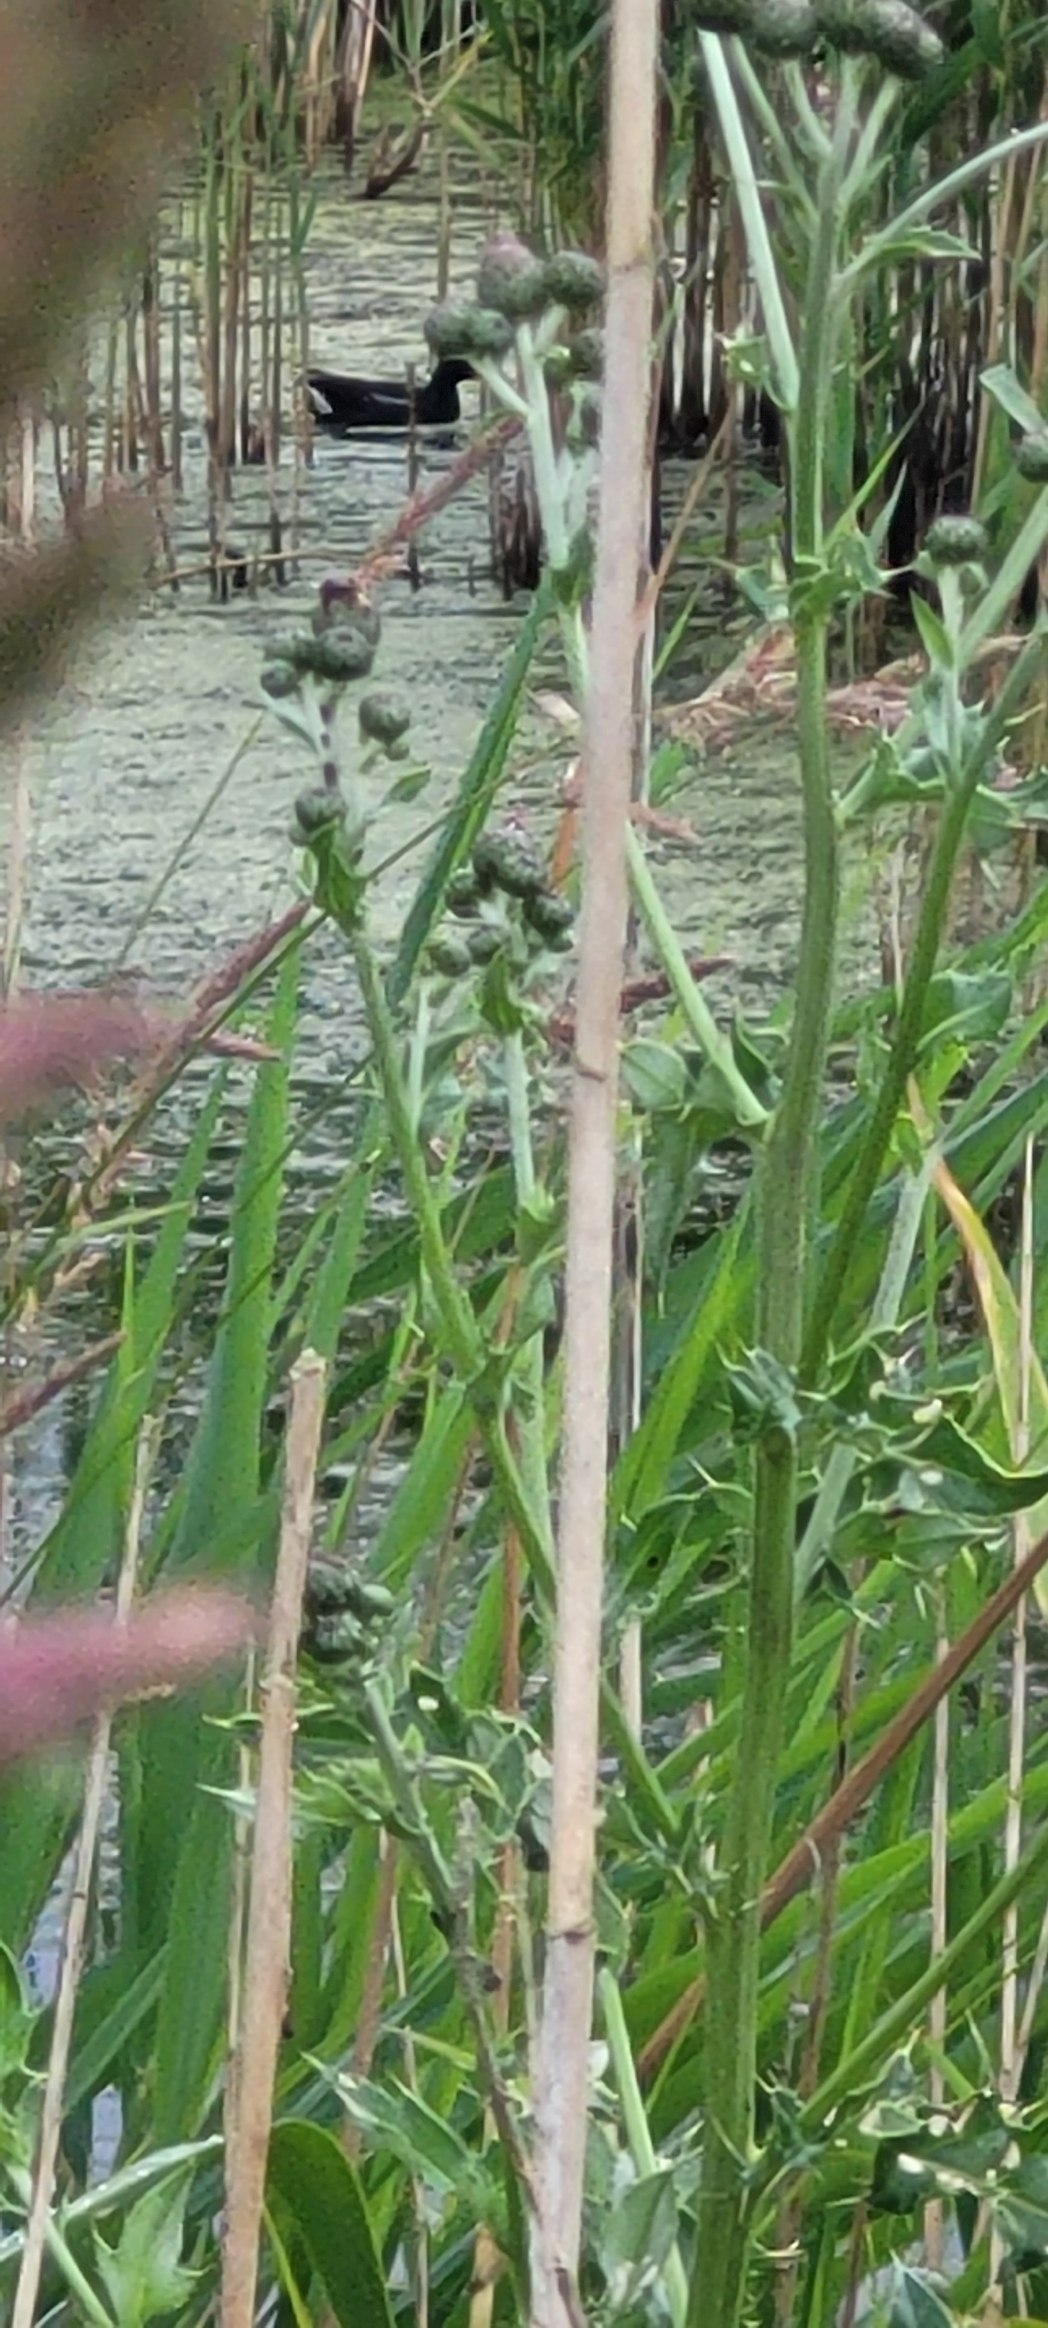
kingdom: Animalia
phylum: Chordata
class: Aves
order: Gruiformes
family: Rallidae
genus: Gallinula
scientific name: Gallinula chloropus
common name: Grønbenet rørhøne
